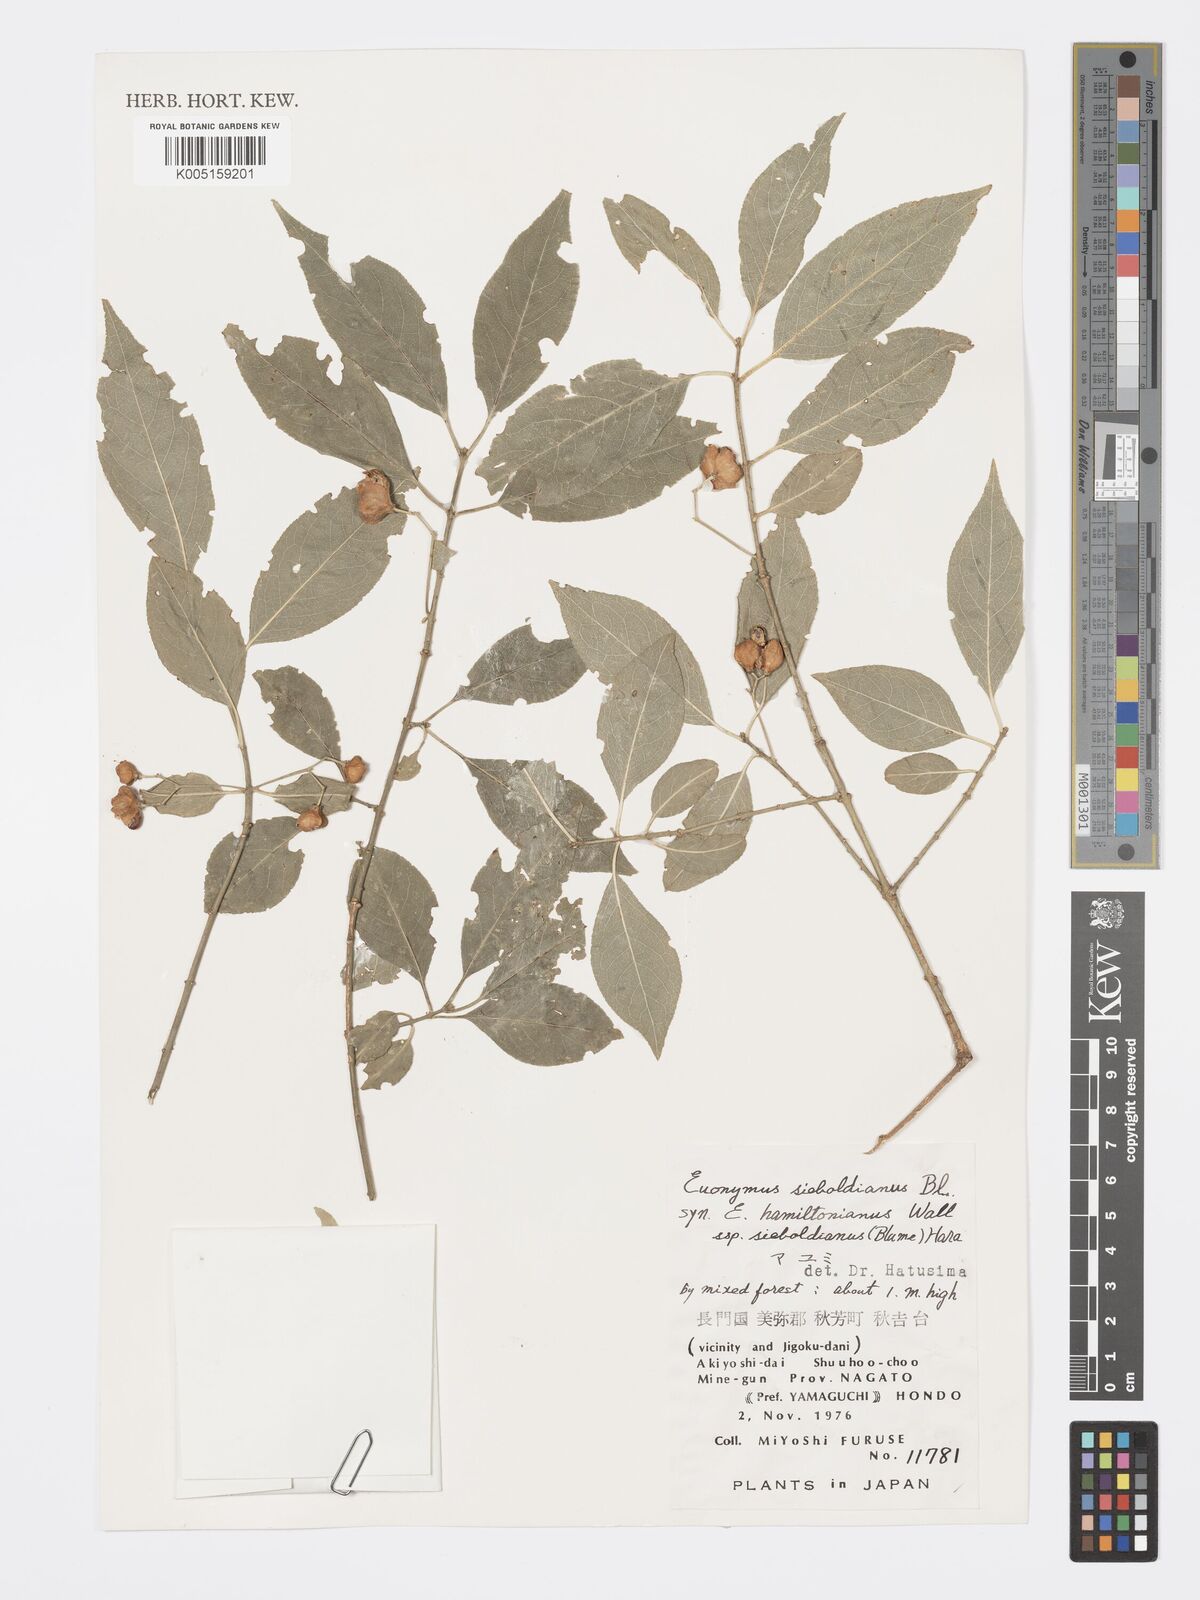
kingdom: Plantae
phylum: Tracheophyta
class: Magnoliopsida
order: Celastrales
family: Celastraceae
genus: Euonymus
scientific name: Euonymus hamiltonianus
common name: Hamilton's spindletree
